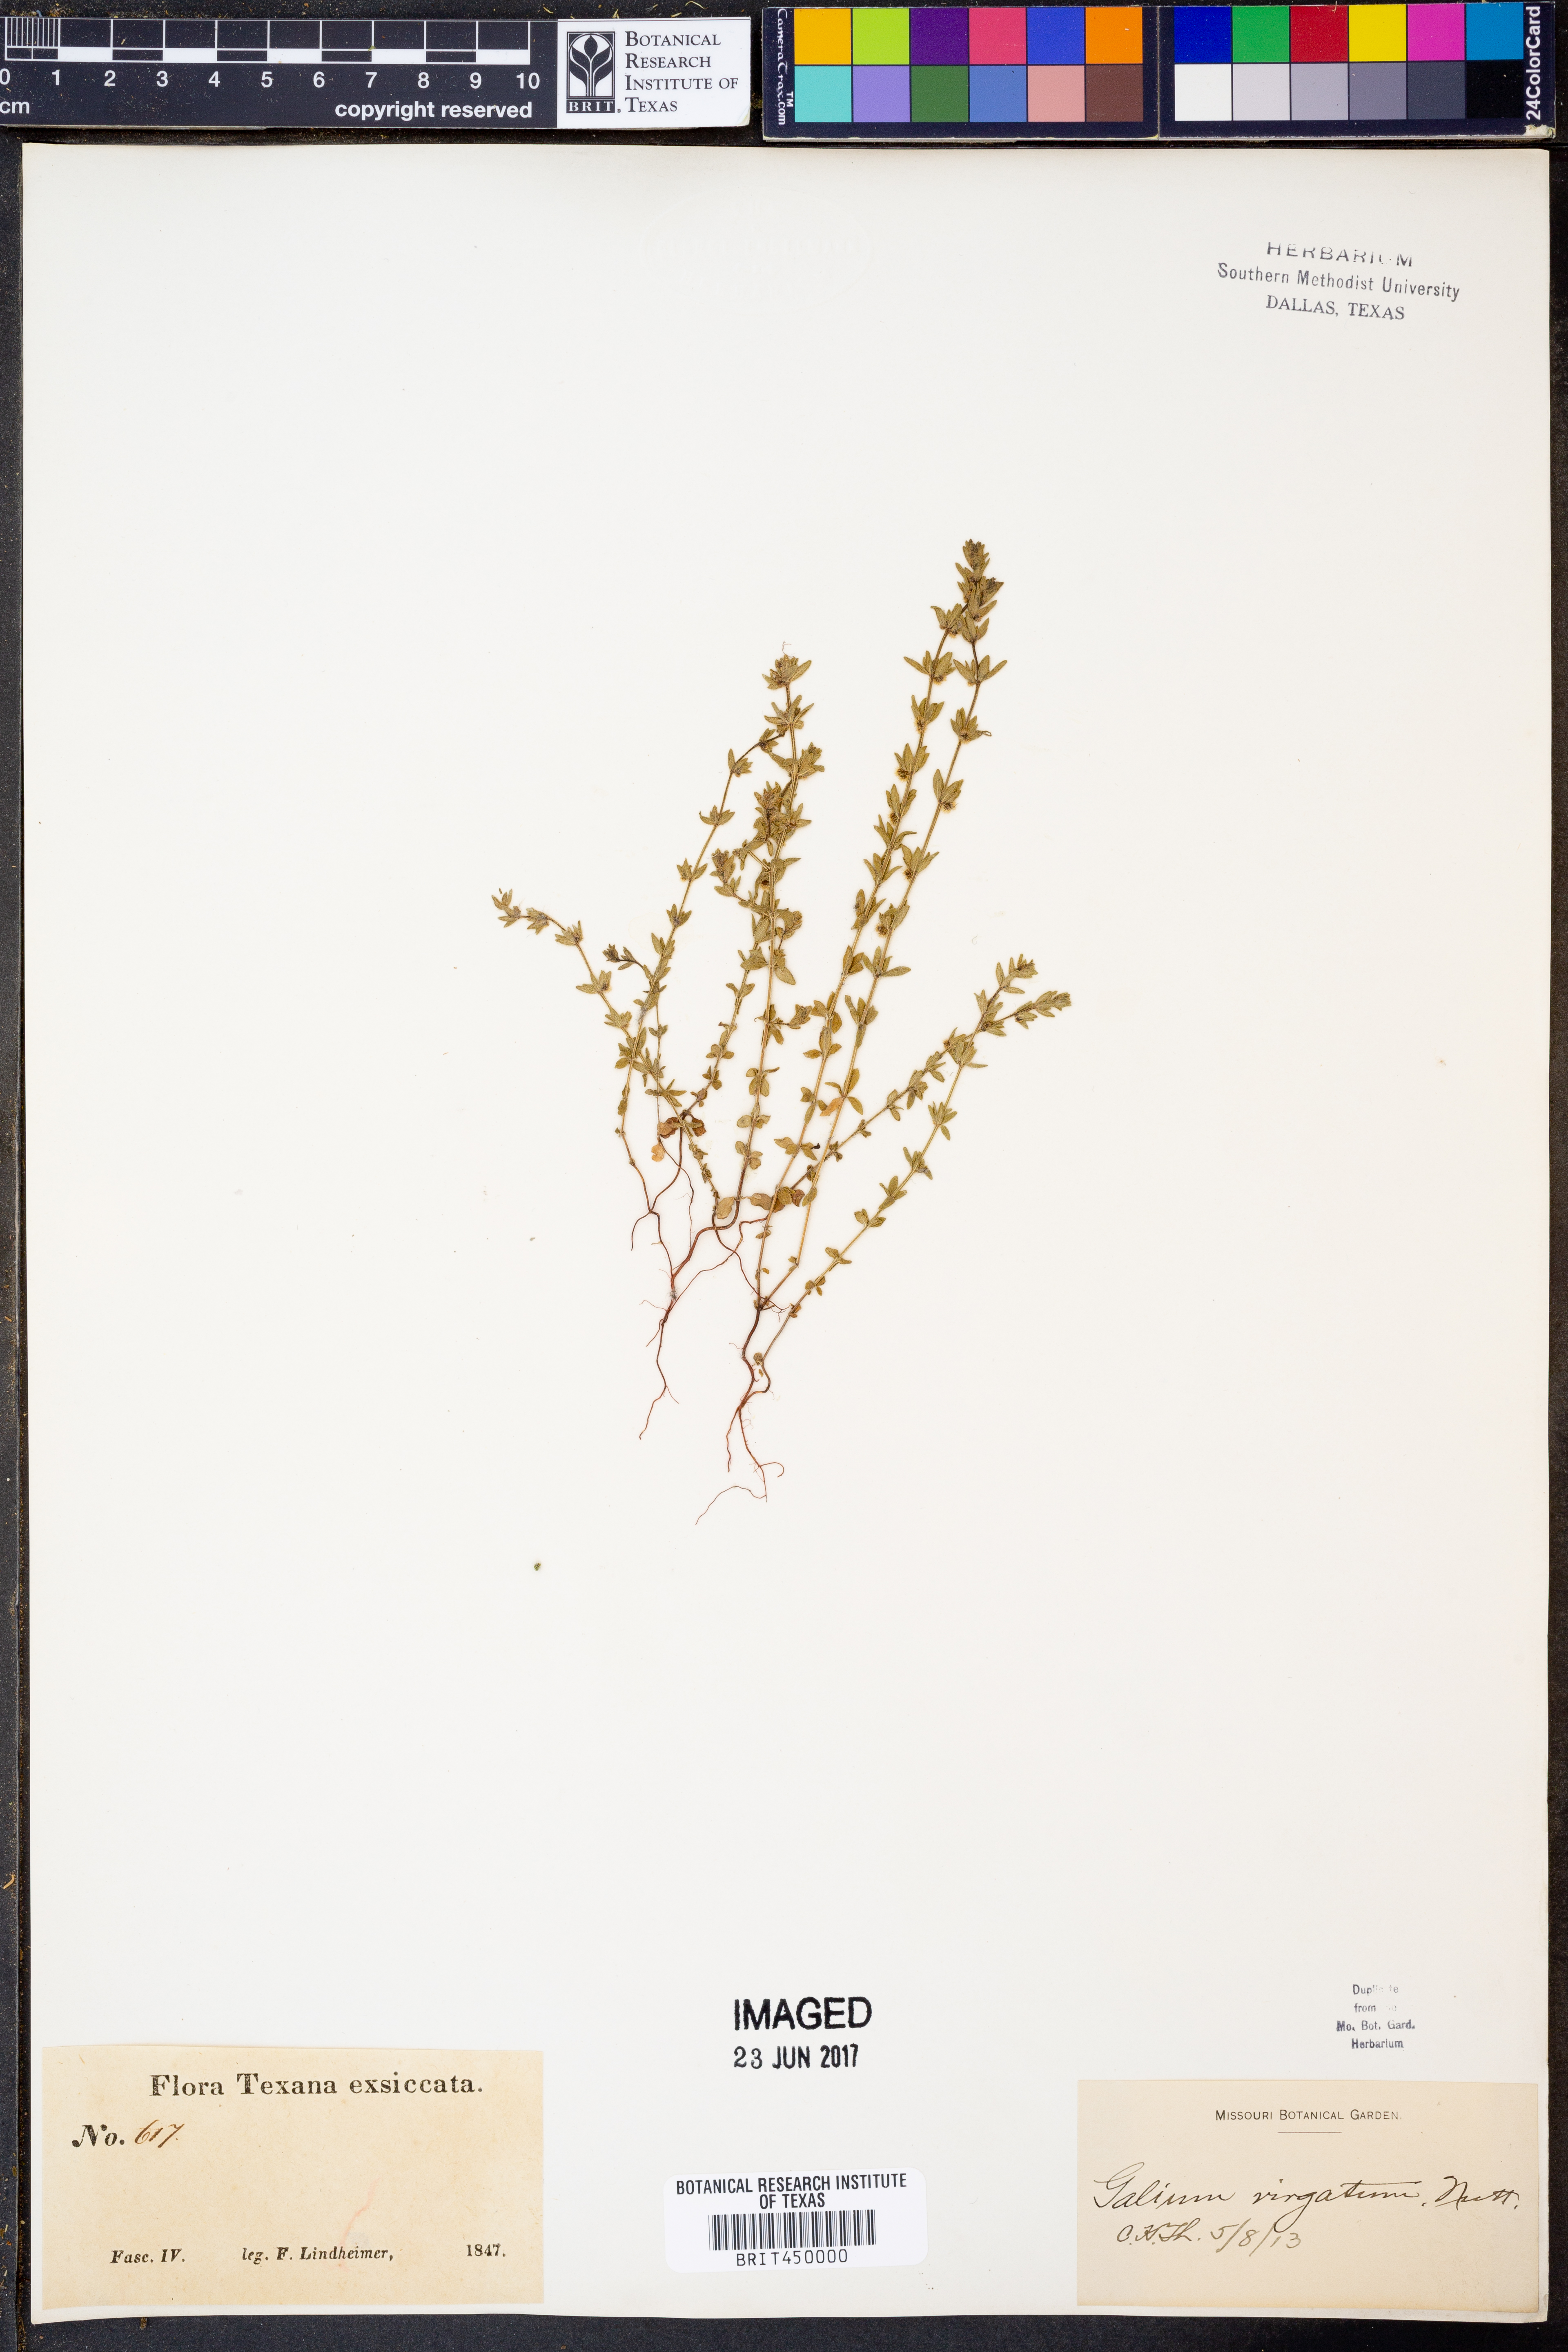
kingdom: Plantae
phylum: Tracheophyta
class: Magnoliopsida
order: Gentianales
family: Rubiaceae
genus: Galium
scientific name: Galium virgatum
